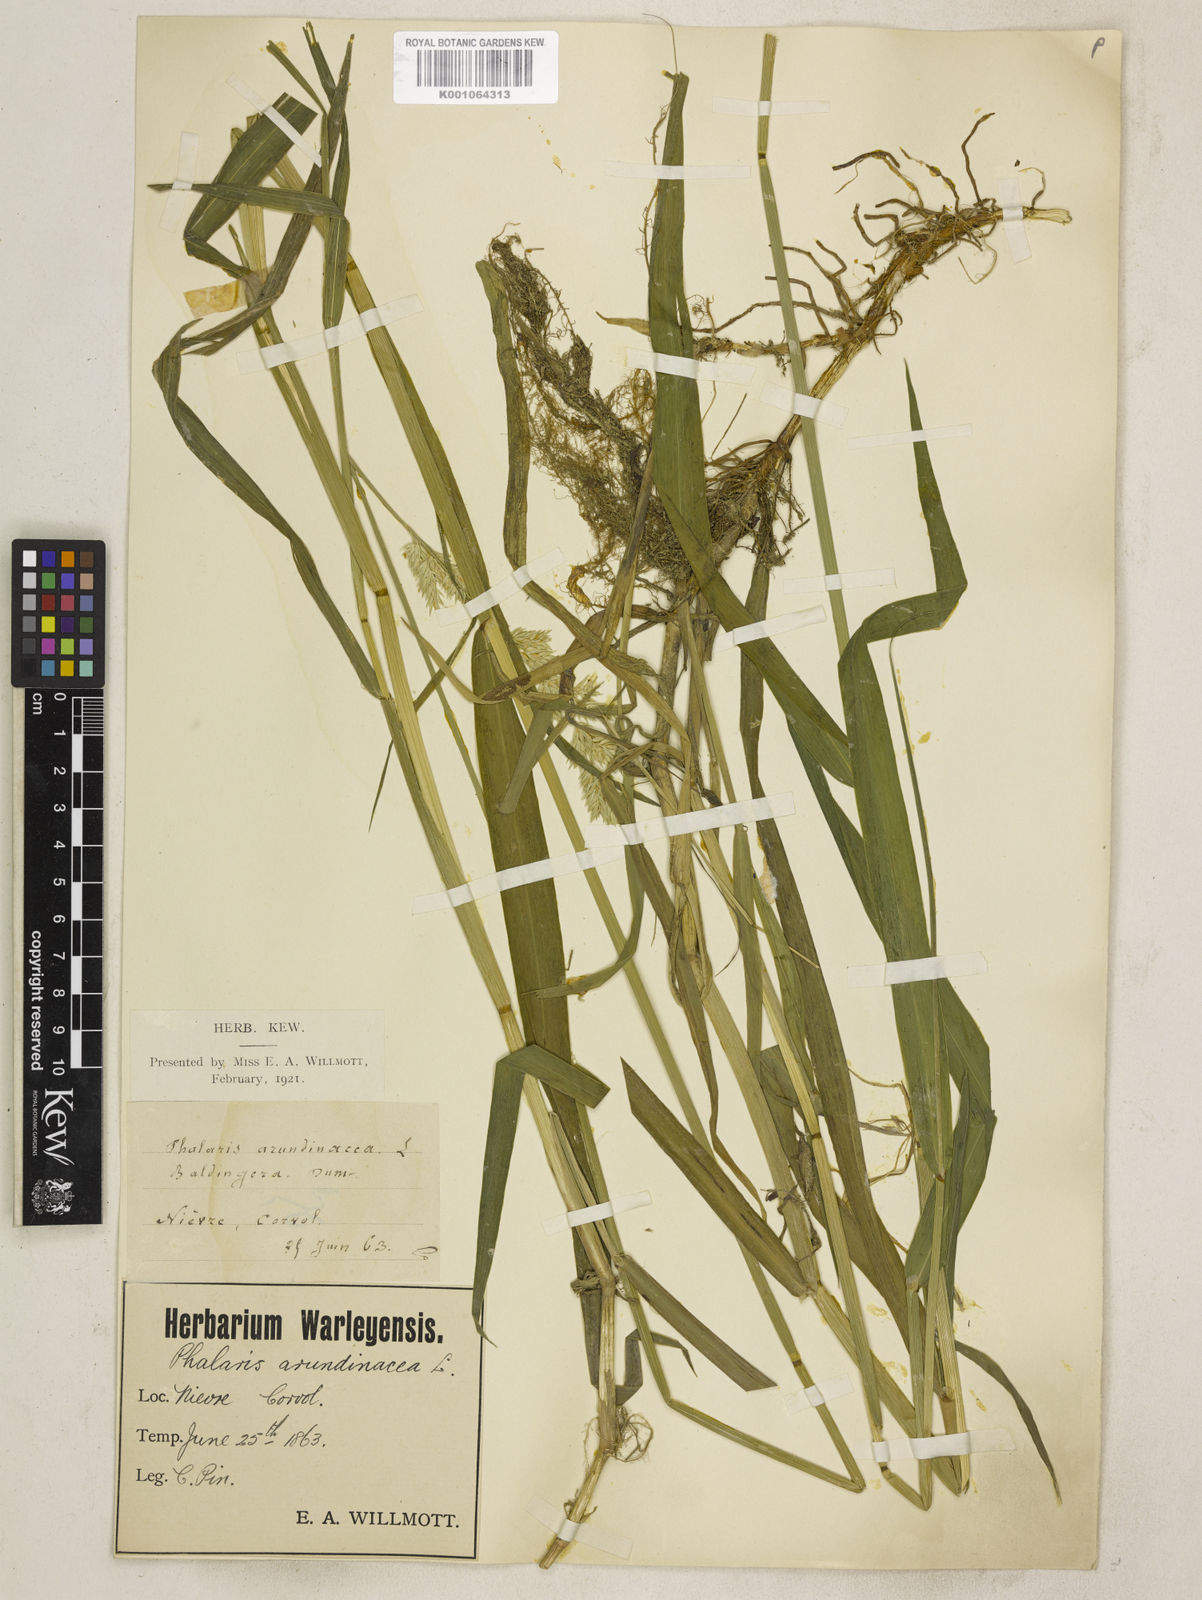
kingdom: Plantae
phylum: Tracheophyta
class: Liliopsida
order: Poales
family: Poaceae
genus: Phalaris
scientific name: Phalaris arundinacea
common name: Reed canary-grass
